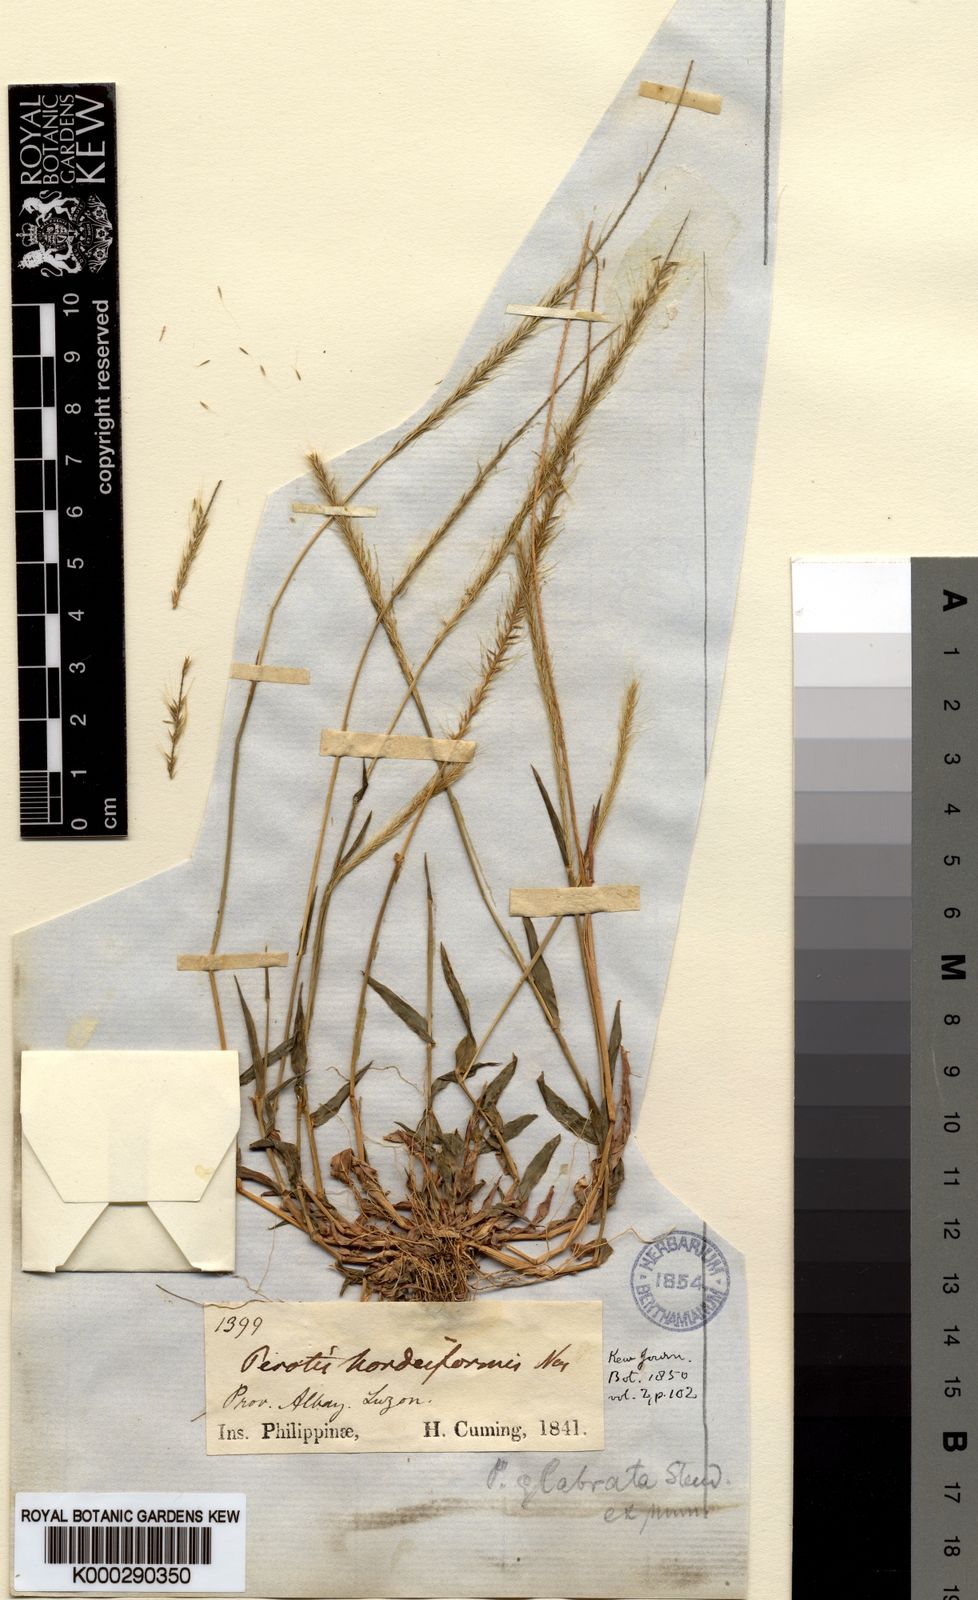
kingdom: Plantae
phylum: Tracheophyta
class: Liliopsida
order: Poales
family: Poaceae
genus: Perotis
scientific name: Perotis hordeiformis
